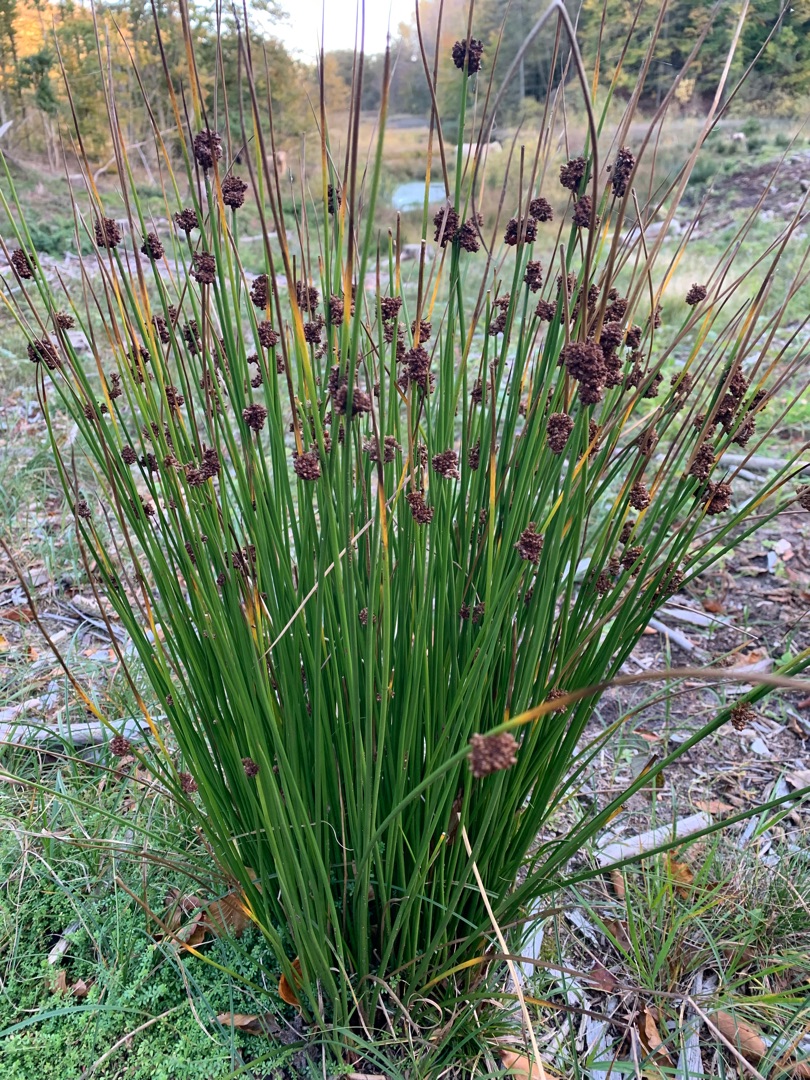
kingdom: Plantae
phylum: Tracheophyta
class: Liliopsida
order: Poales
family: Juncaceae
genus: Juncus
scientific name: Juncus effusus
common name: Lyse-siv
